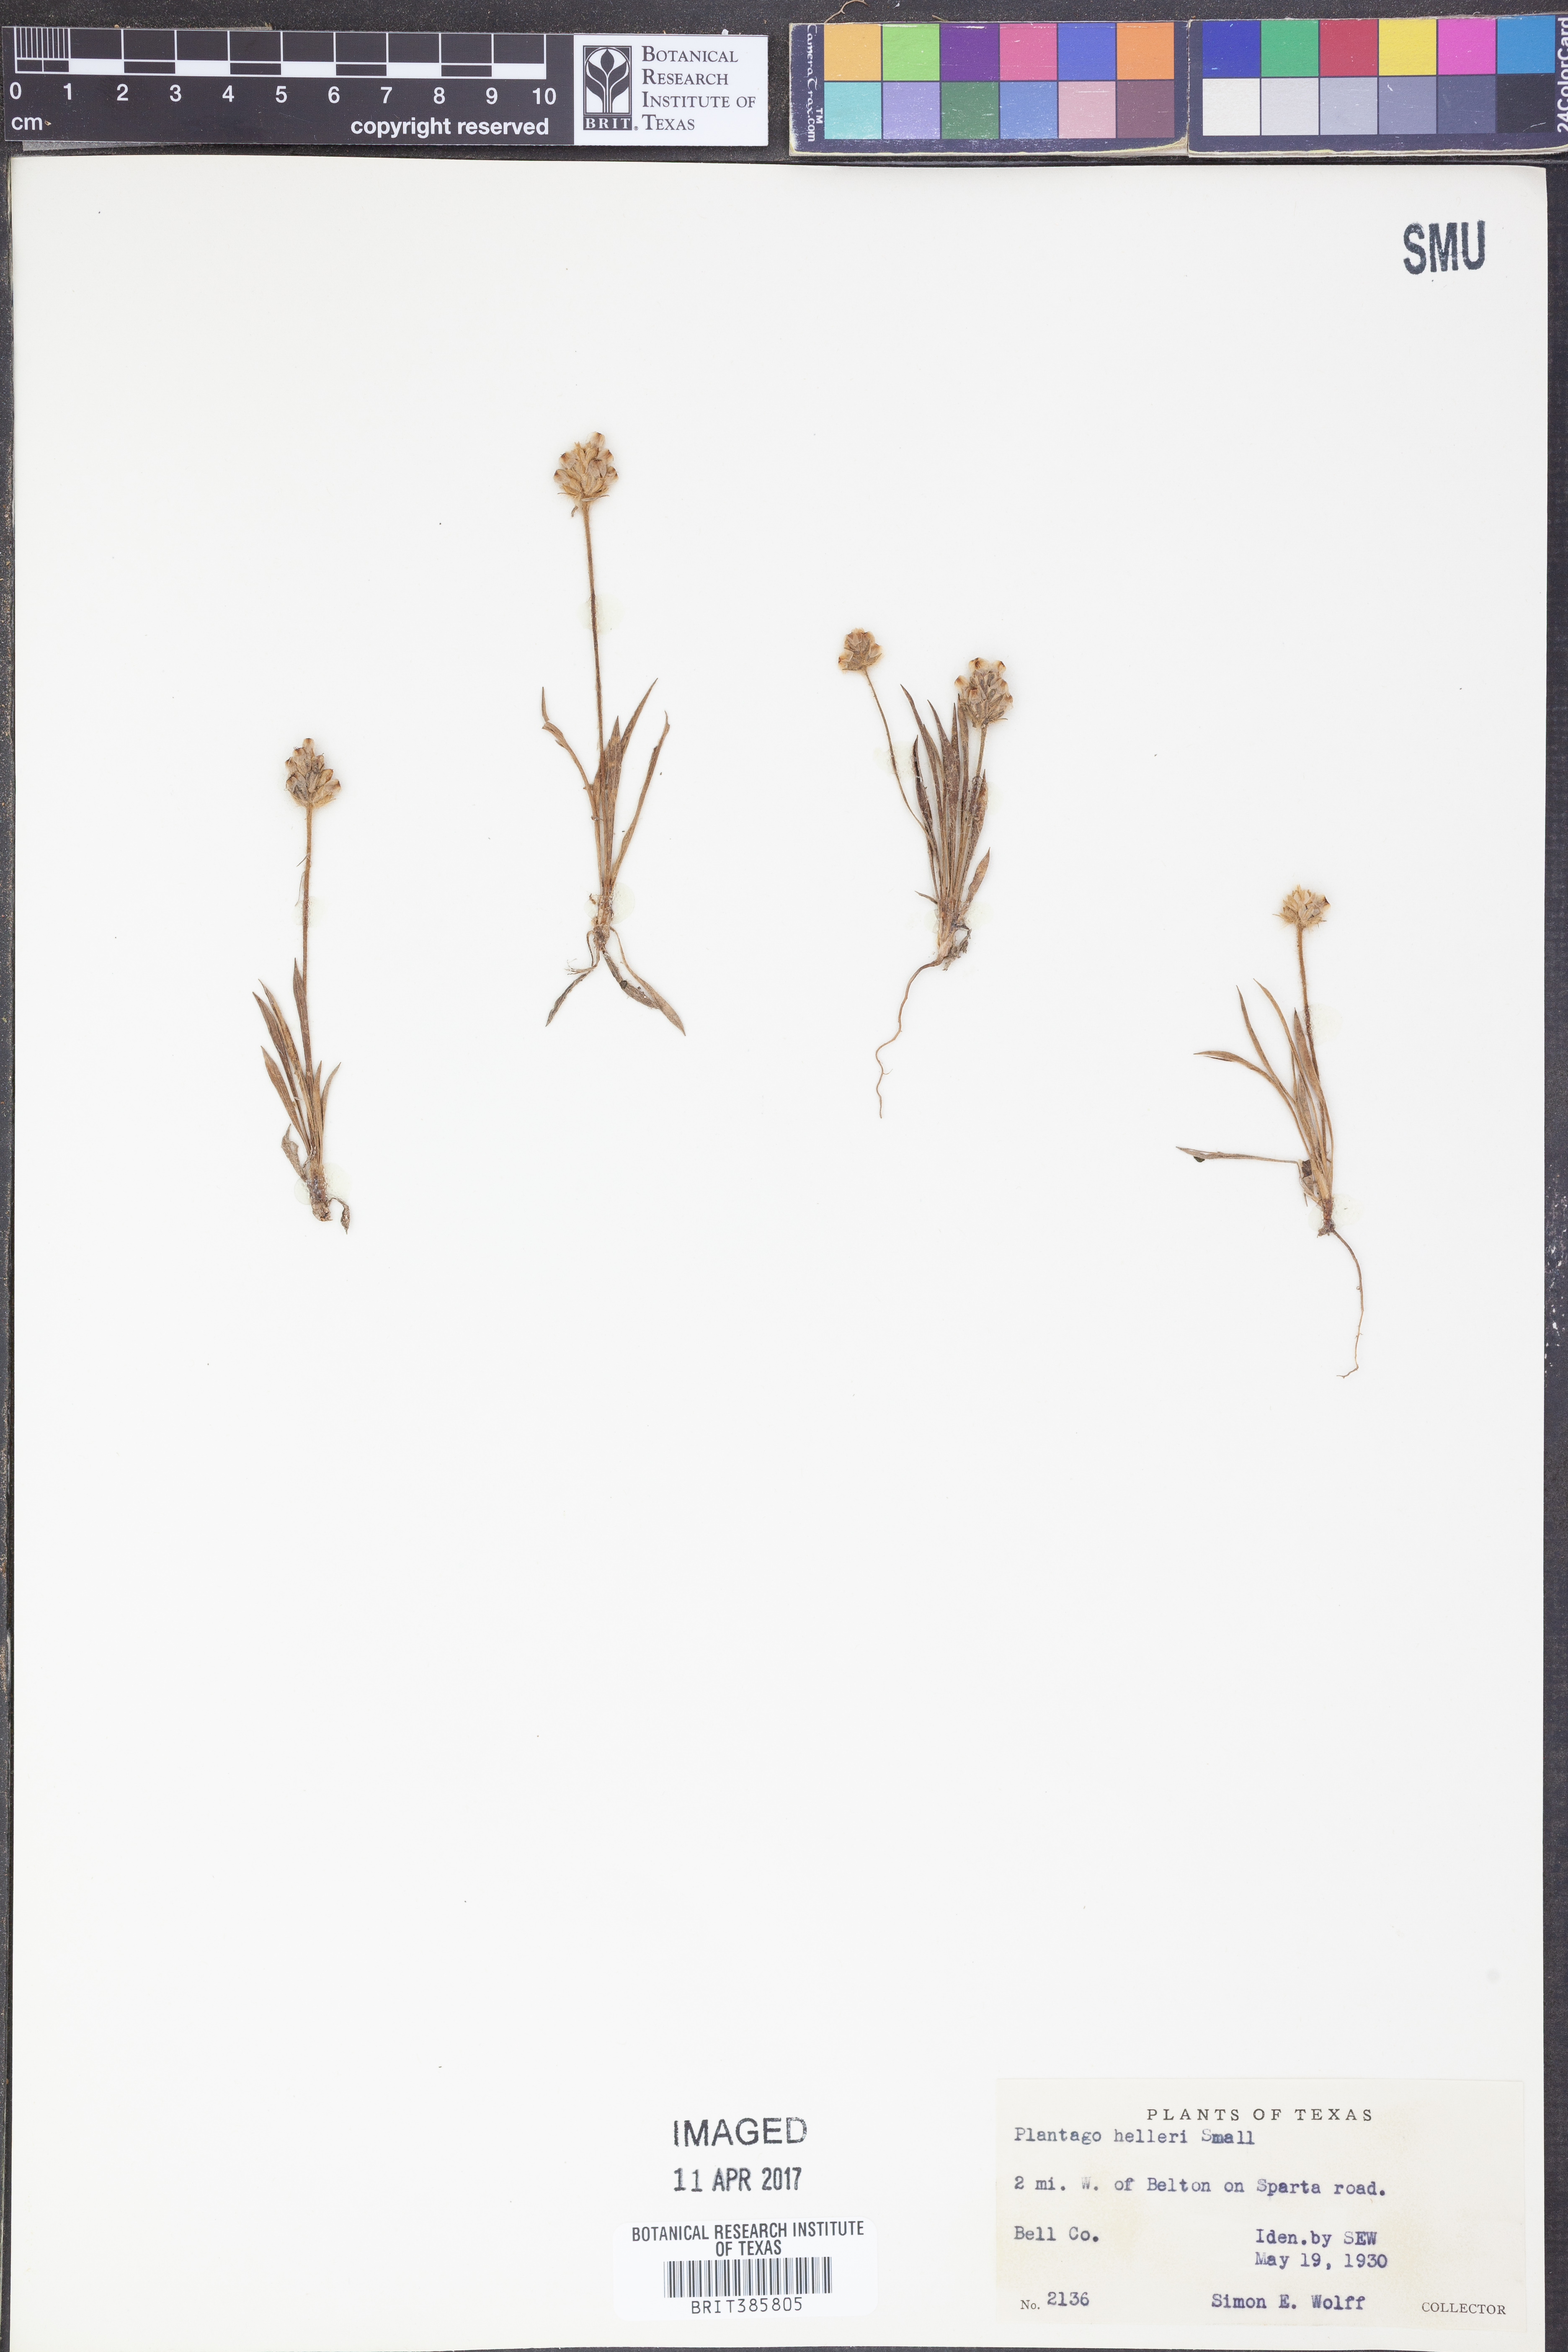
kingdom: Plantae
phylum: Tracheophyta
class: Magnoliopsida
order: Lamiales
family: Plantaginaceae
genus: Plantago
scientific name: Plantago helleri
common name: Heller's plantain
